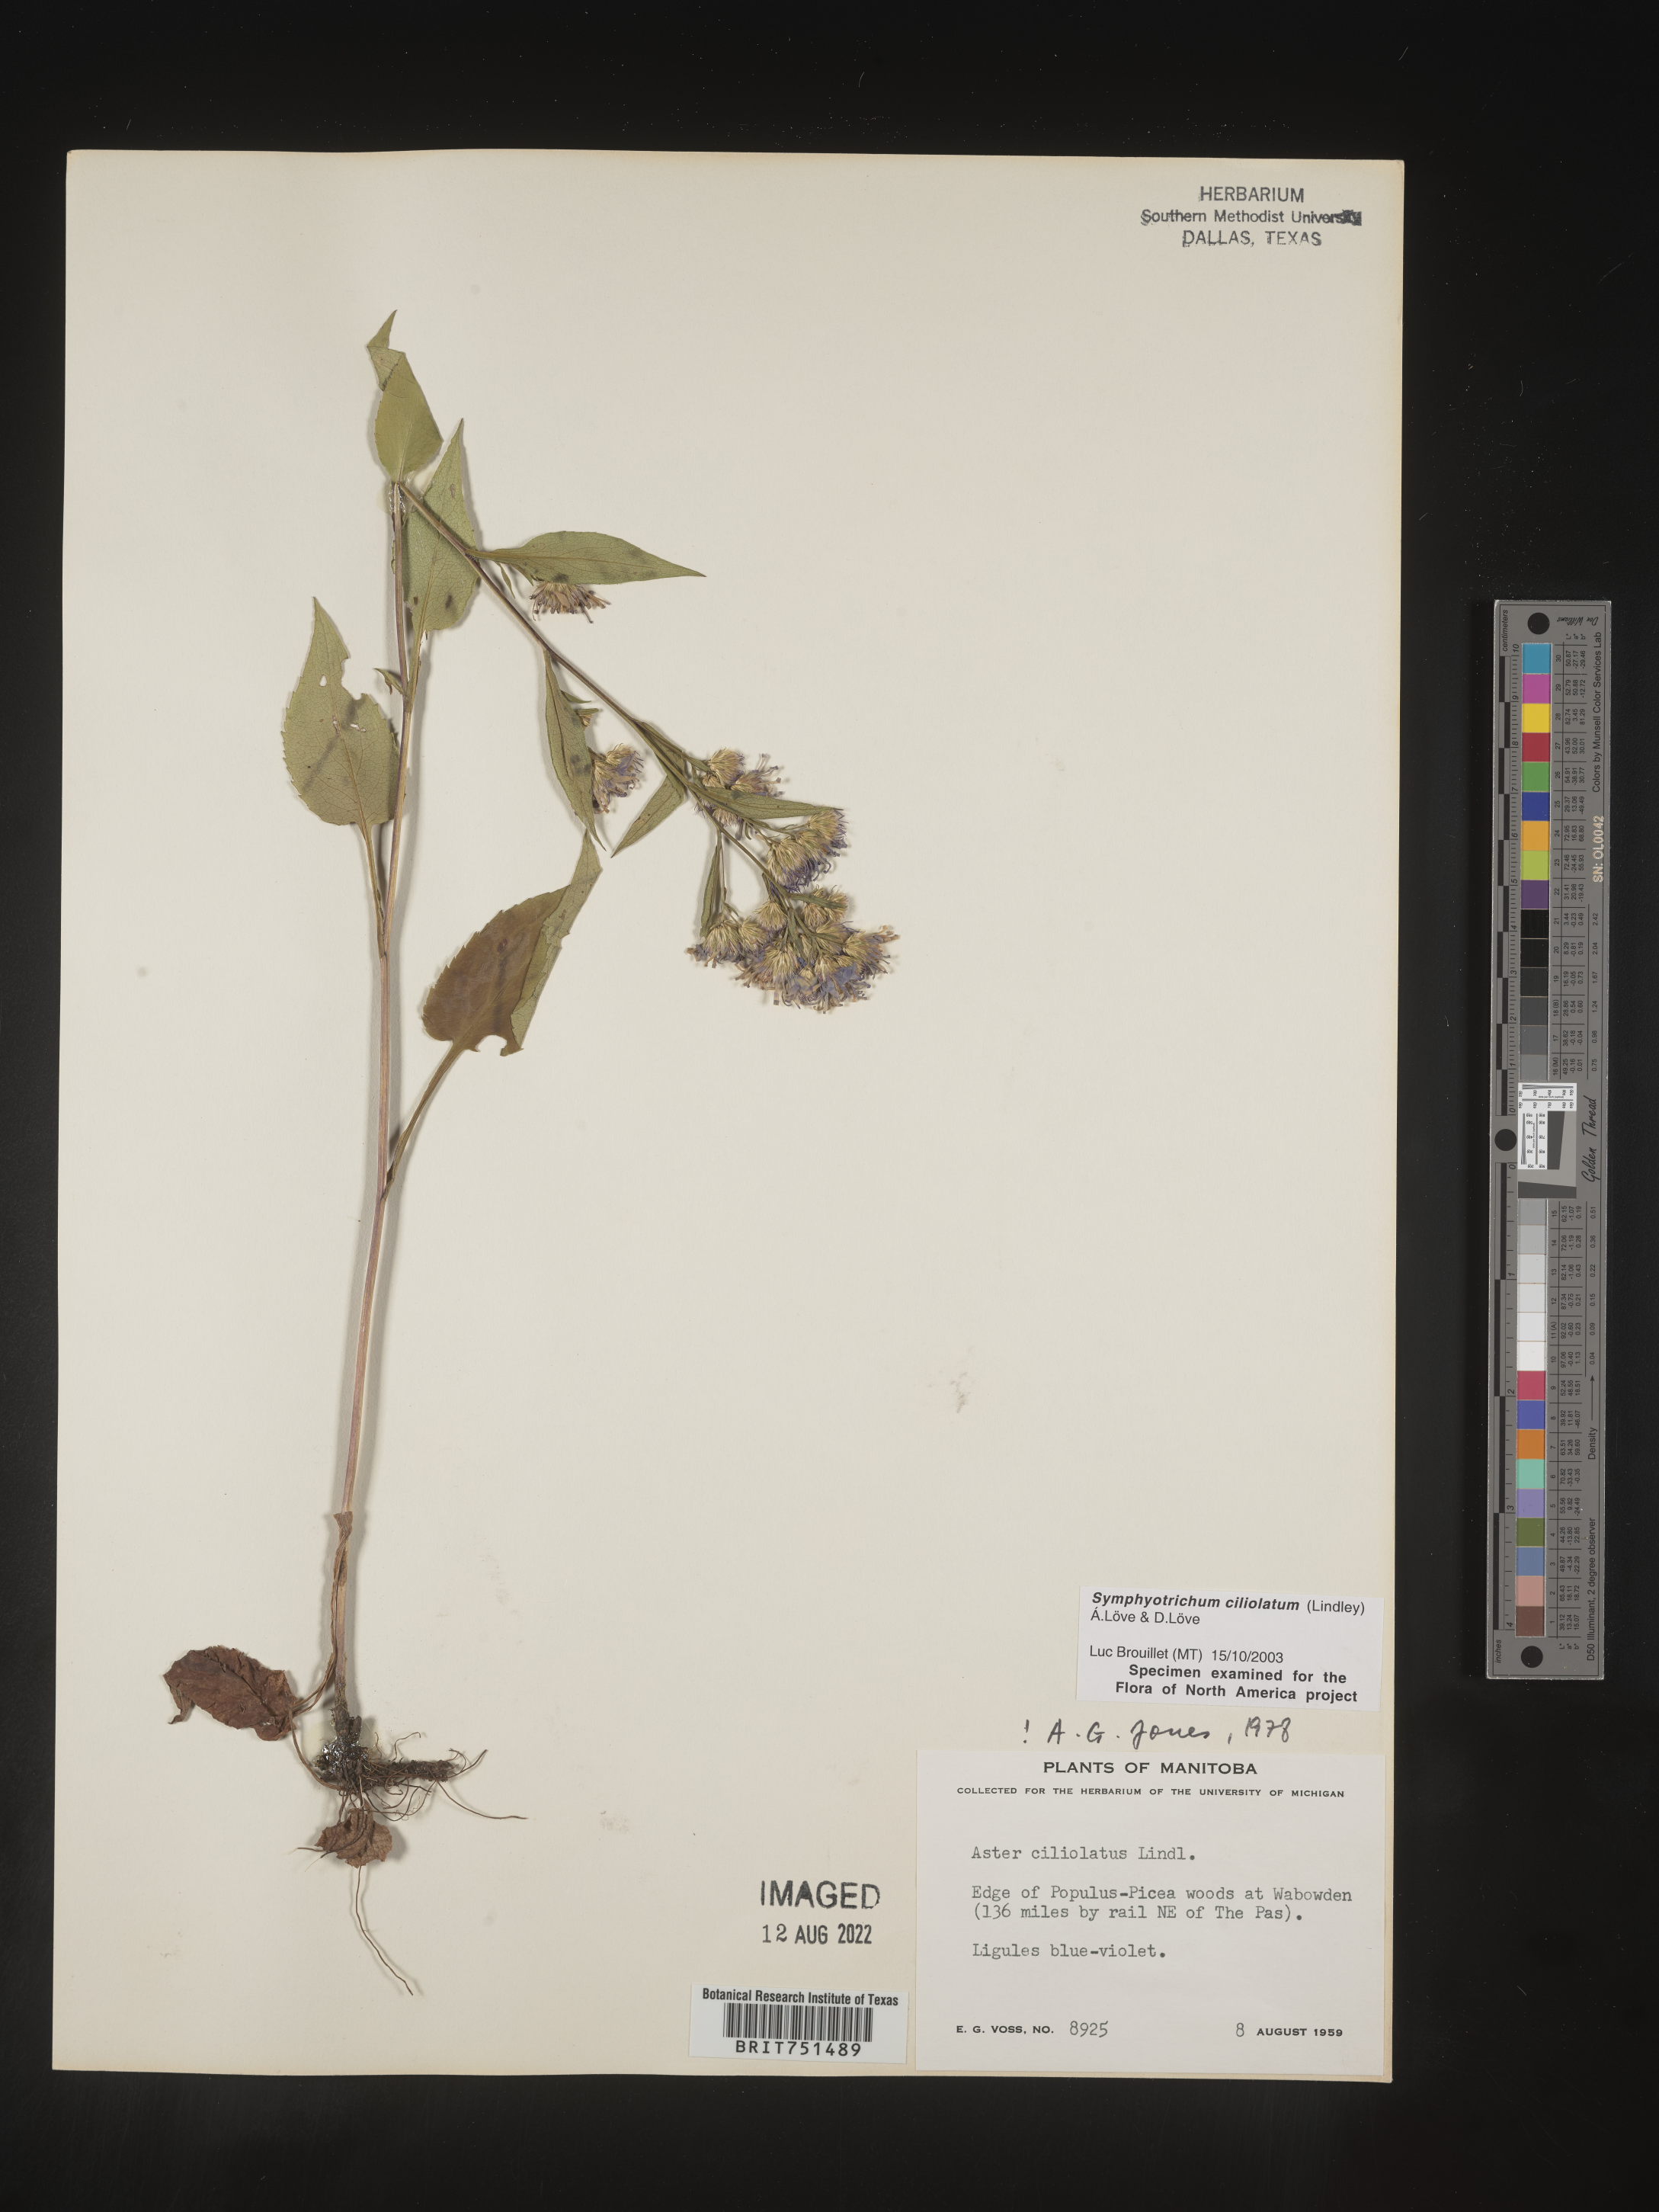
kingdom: Plantae
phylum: Tracheophyta
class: Magnoliopsida
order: Asterales
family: Asteraceae
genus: Symphyotrichum
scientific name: Symphyotrichum ciliolatum
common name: Fringed blue aster
